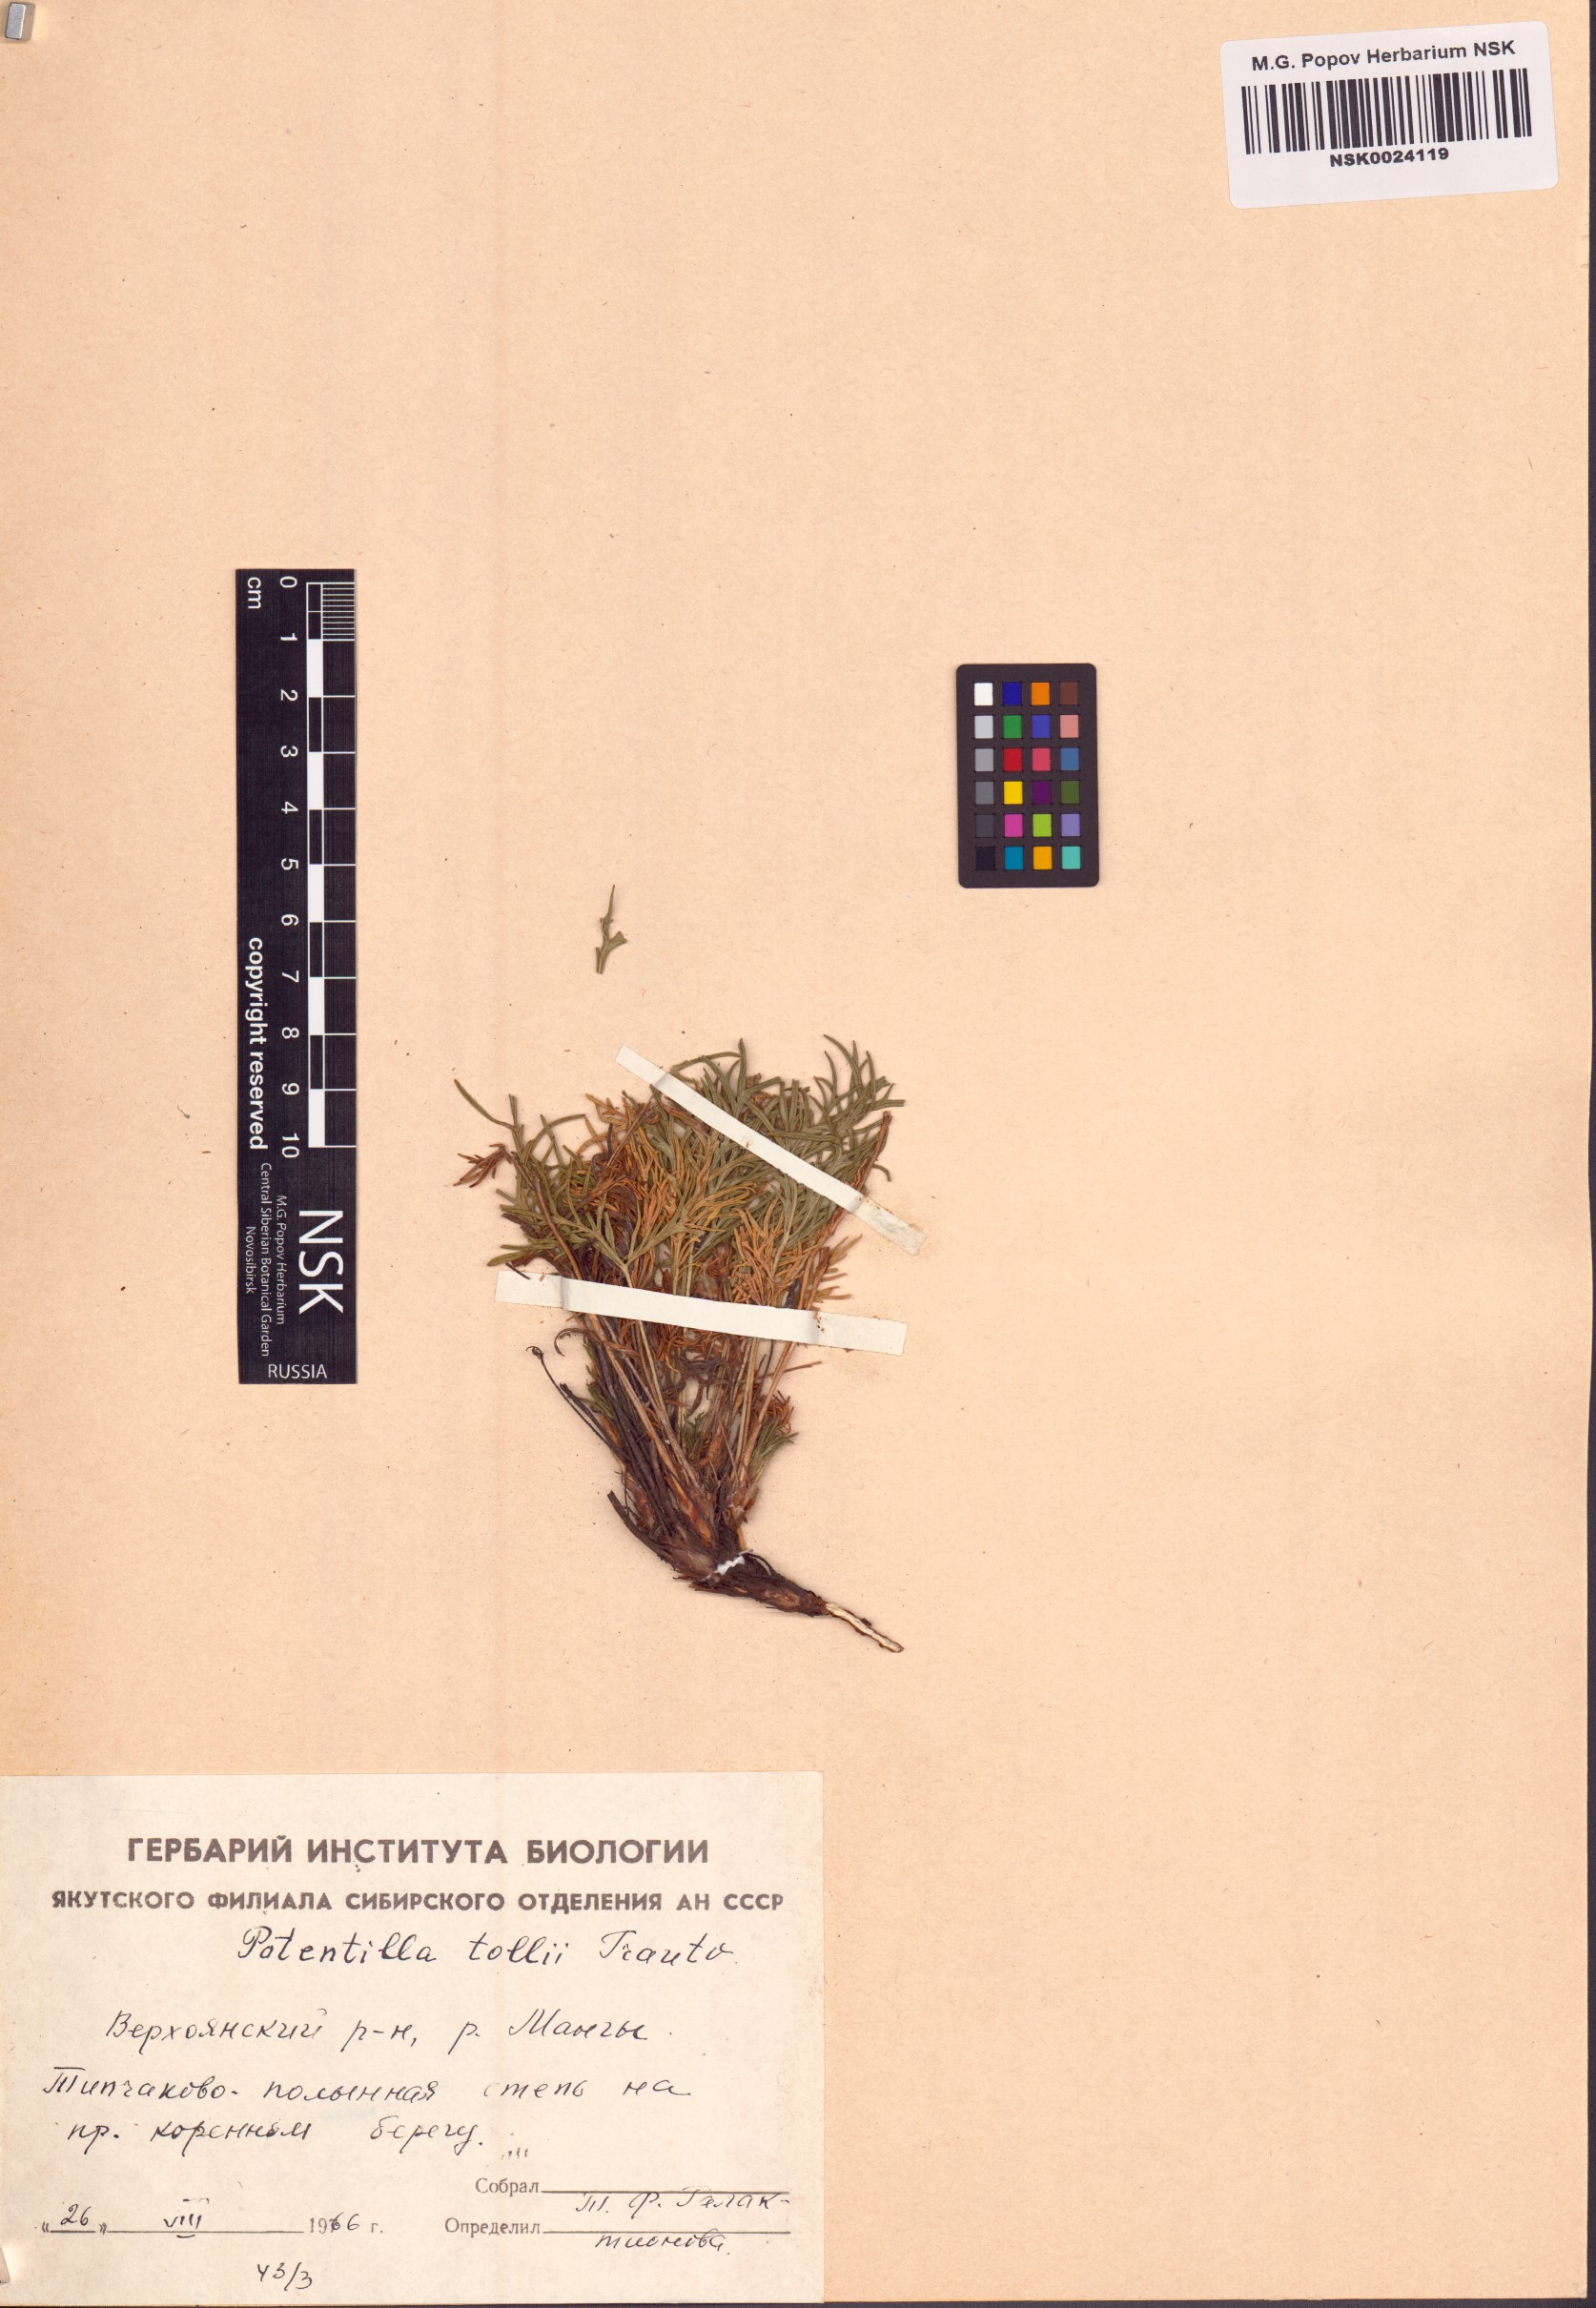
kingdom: Plantae
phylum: Tracheophyta
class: Magnoliopsida
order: Rosales
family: Rosaceae
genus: Potentilla
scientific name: Potentilla tollii
